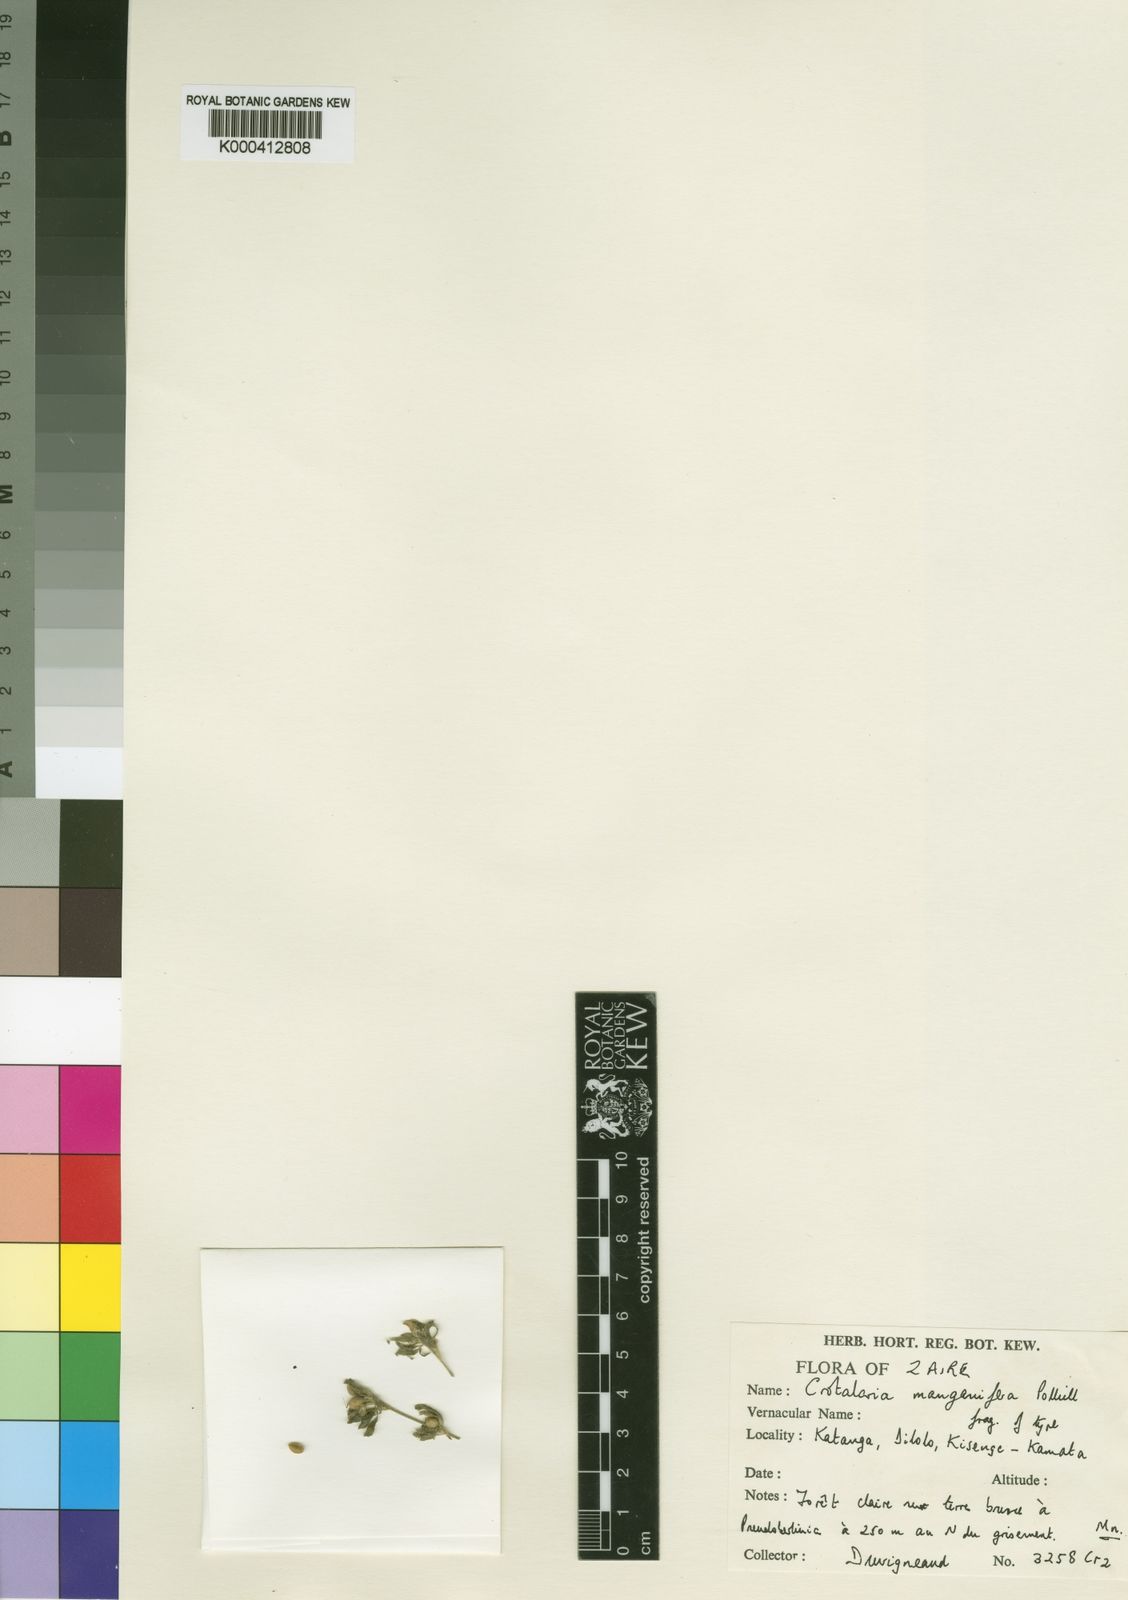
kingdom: Plantae
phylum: Tracheophyta
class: Magnoliopsida
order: Fabales
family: Fabaceae
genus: Crotalaria
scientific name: Crotalaria manganifera
